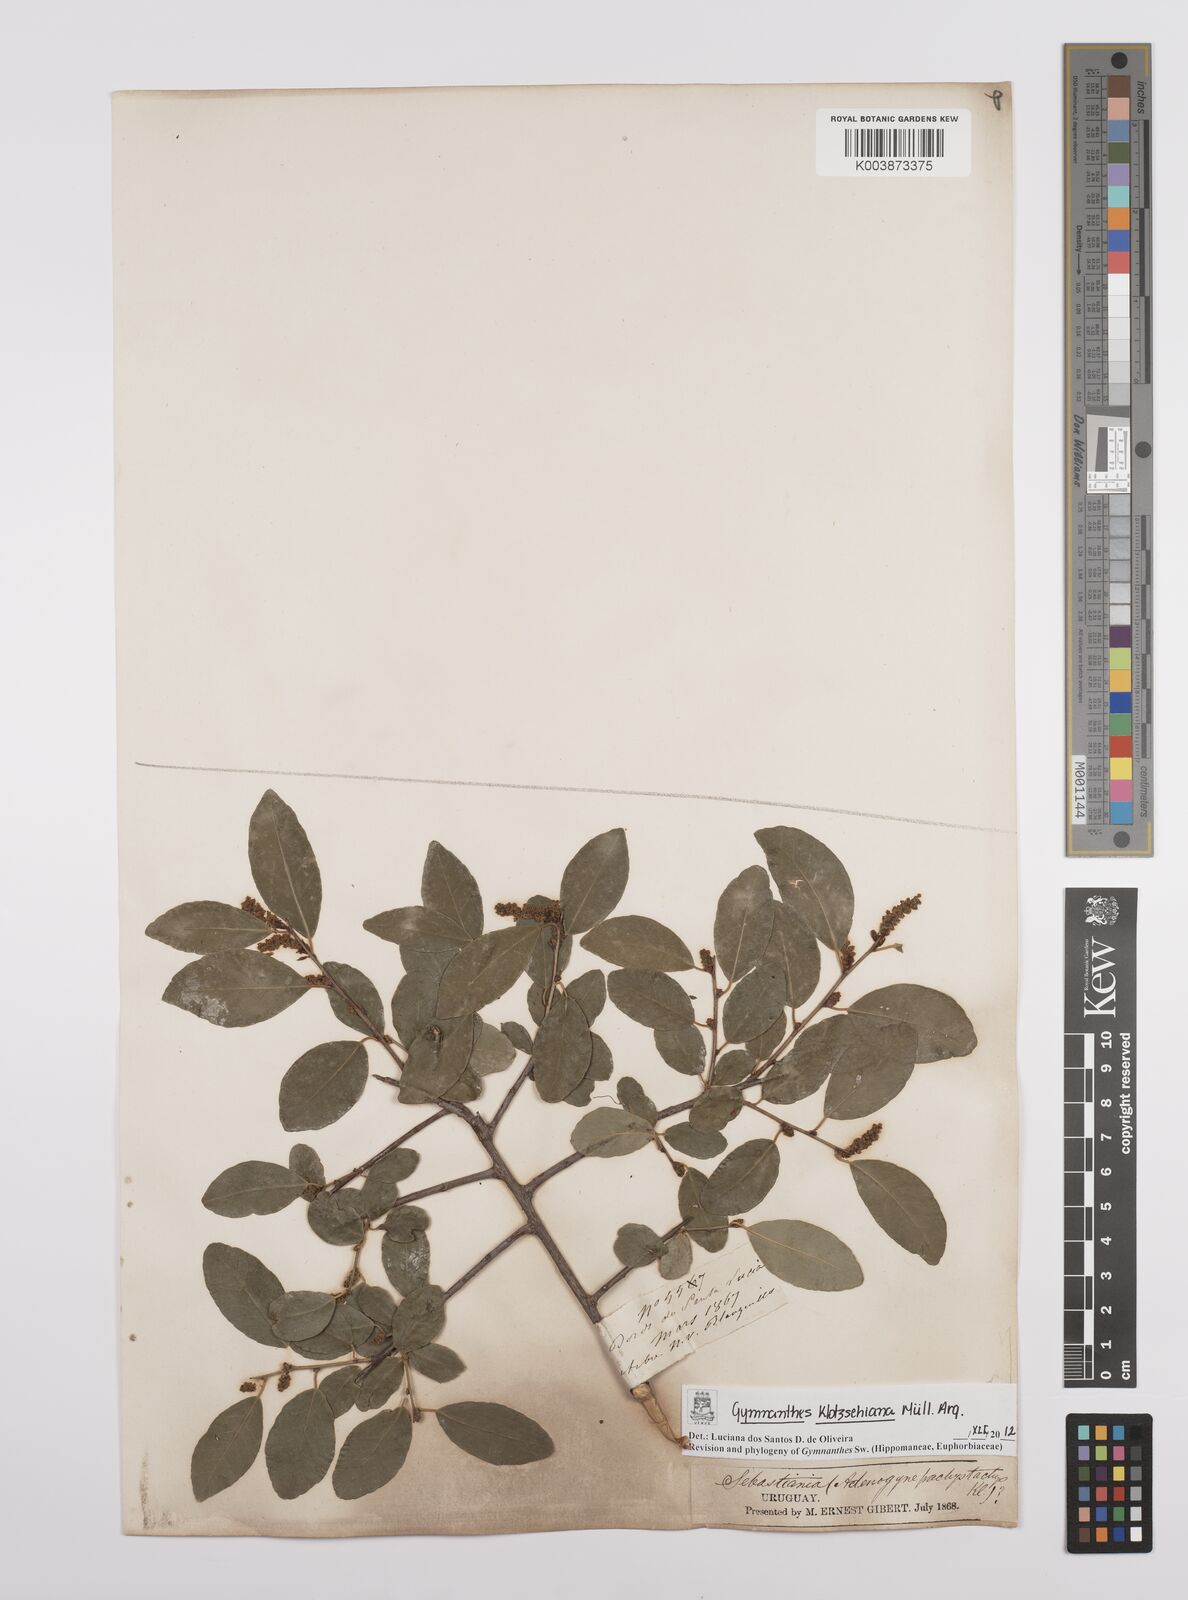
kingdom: Plantae
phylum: Tracheophyta
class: Magnoliopsida
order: Malpighiales
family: Euphorbiaceae
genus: Sebastiania
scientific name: Sebastiania klotzschiana
